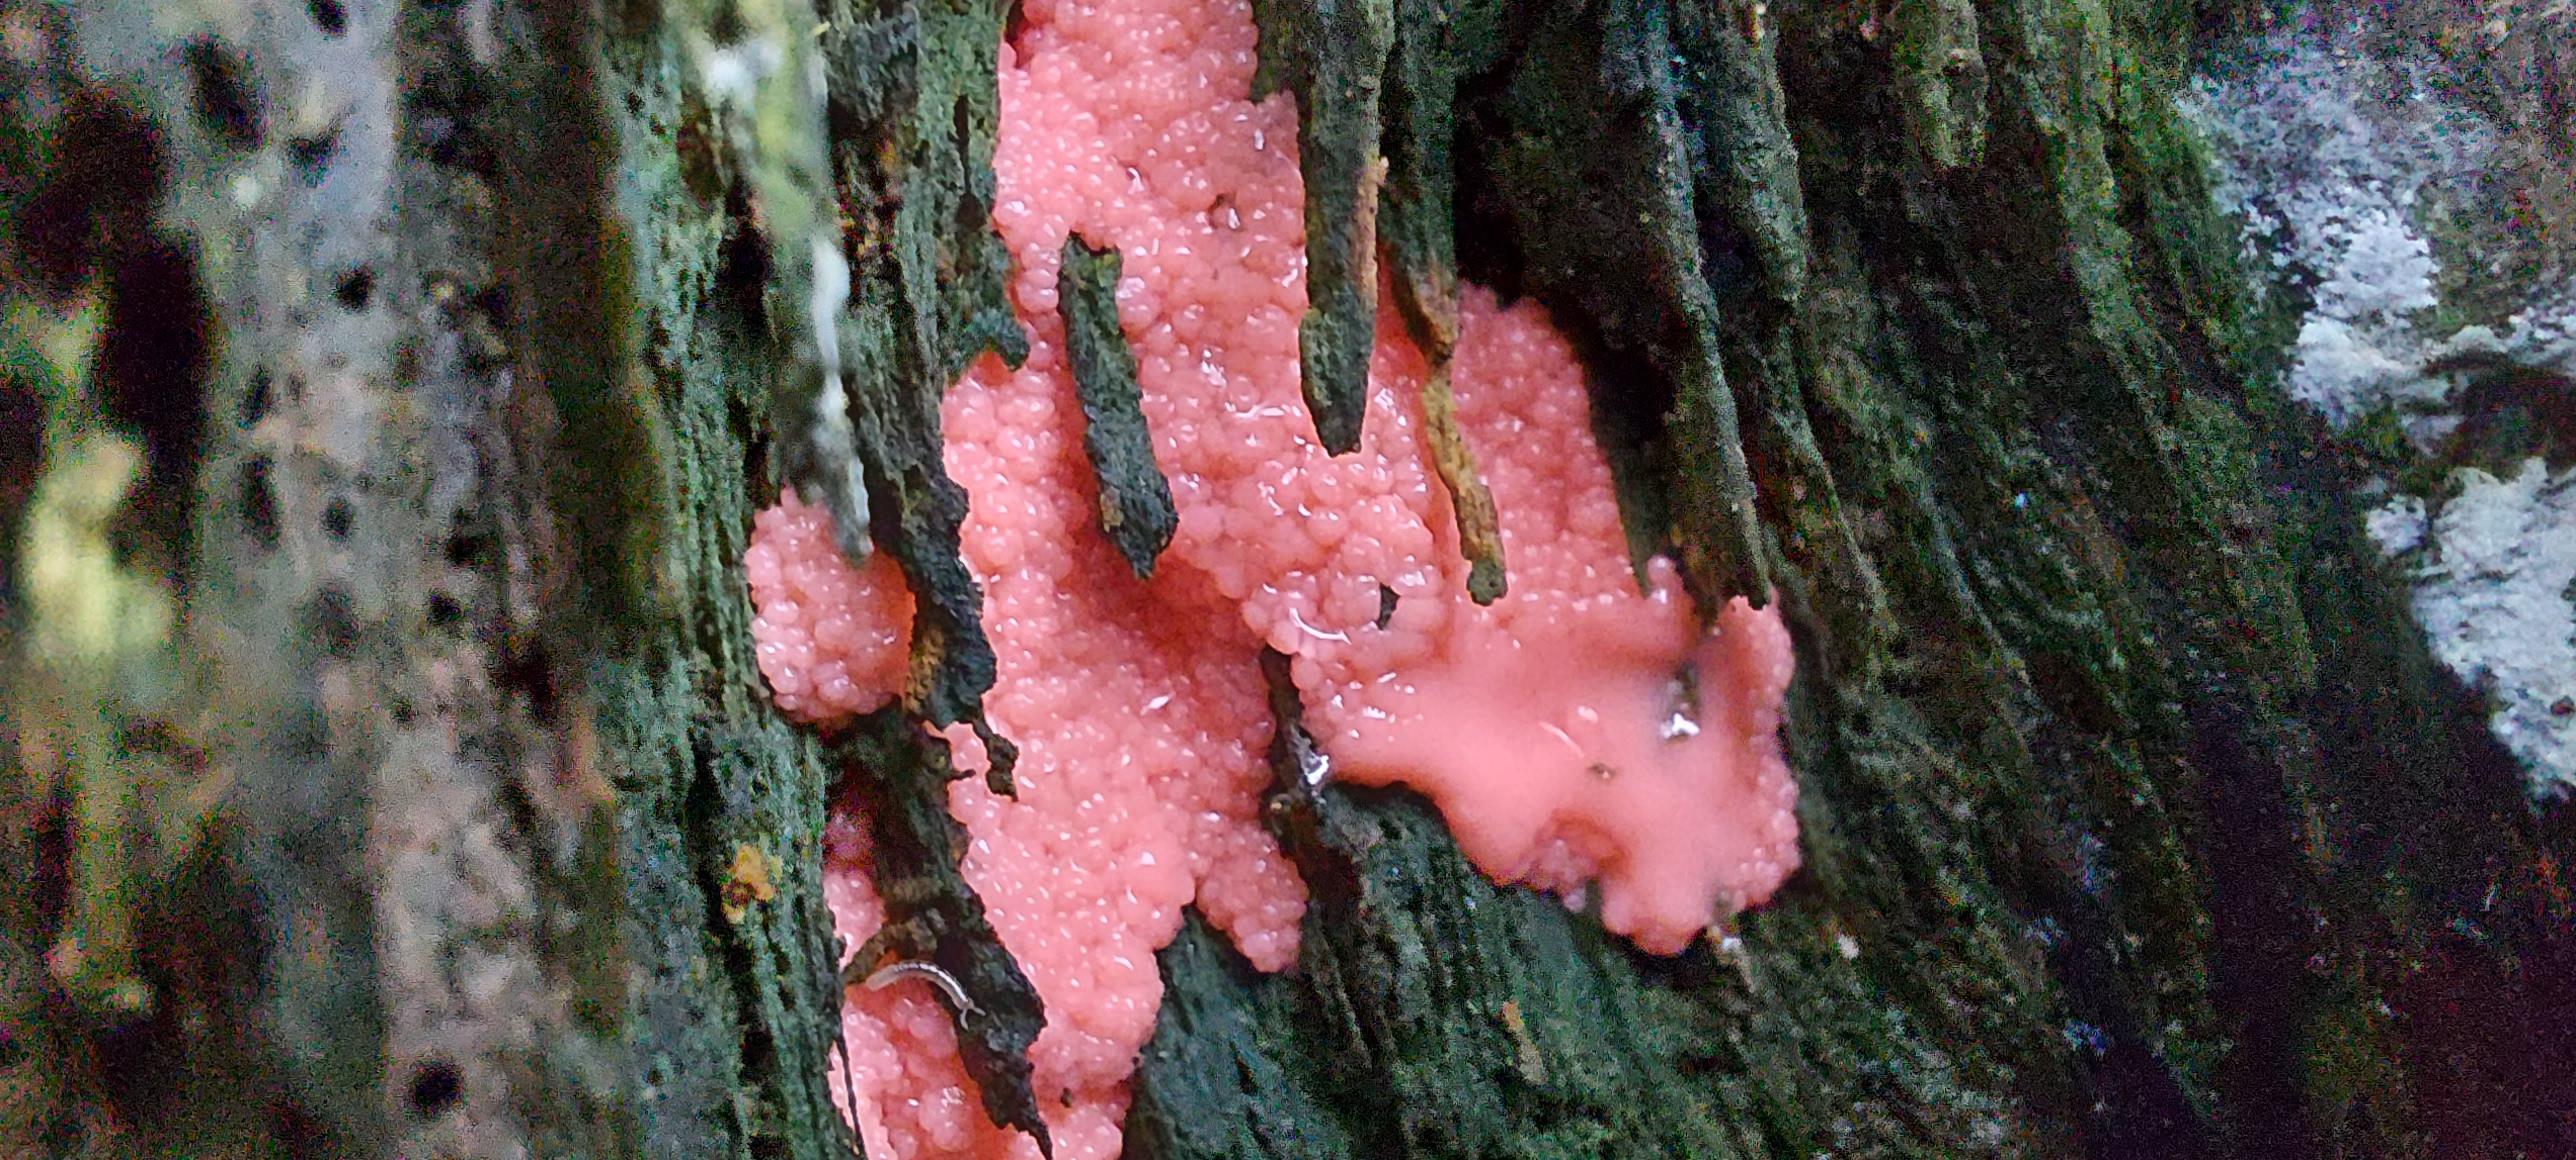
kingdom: Protozoa
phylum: Mycetozoa
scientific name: Mycetozoa
